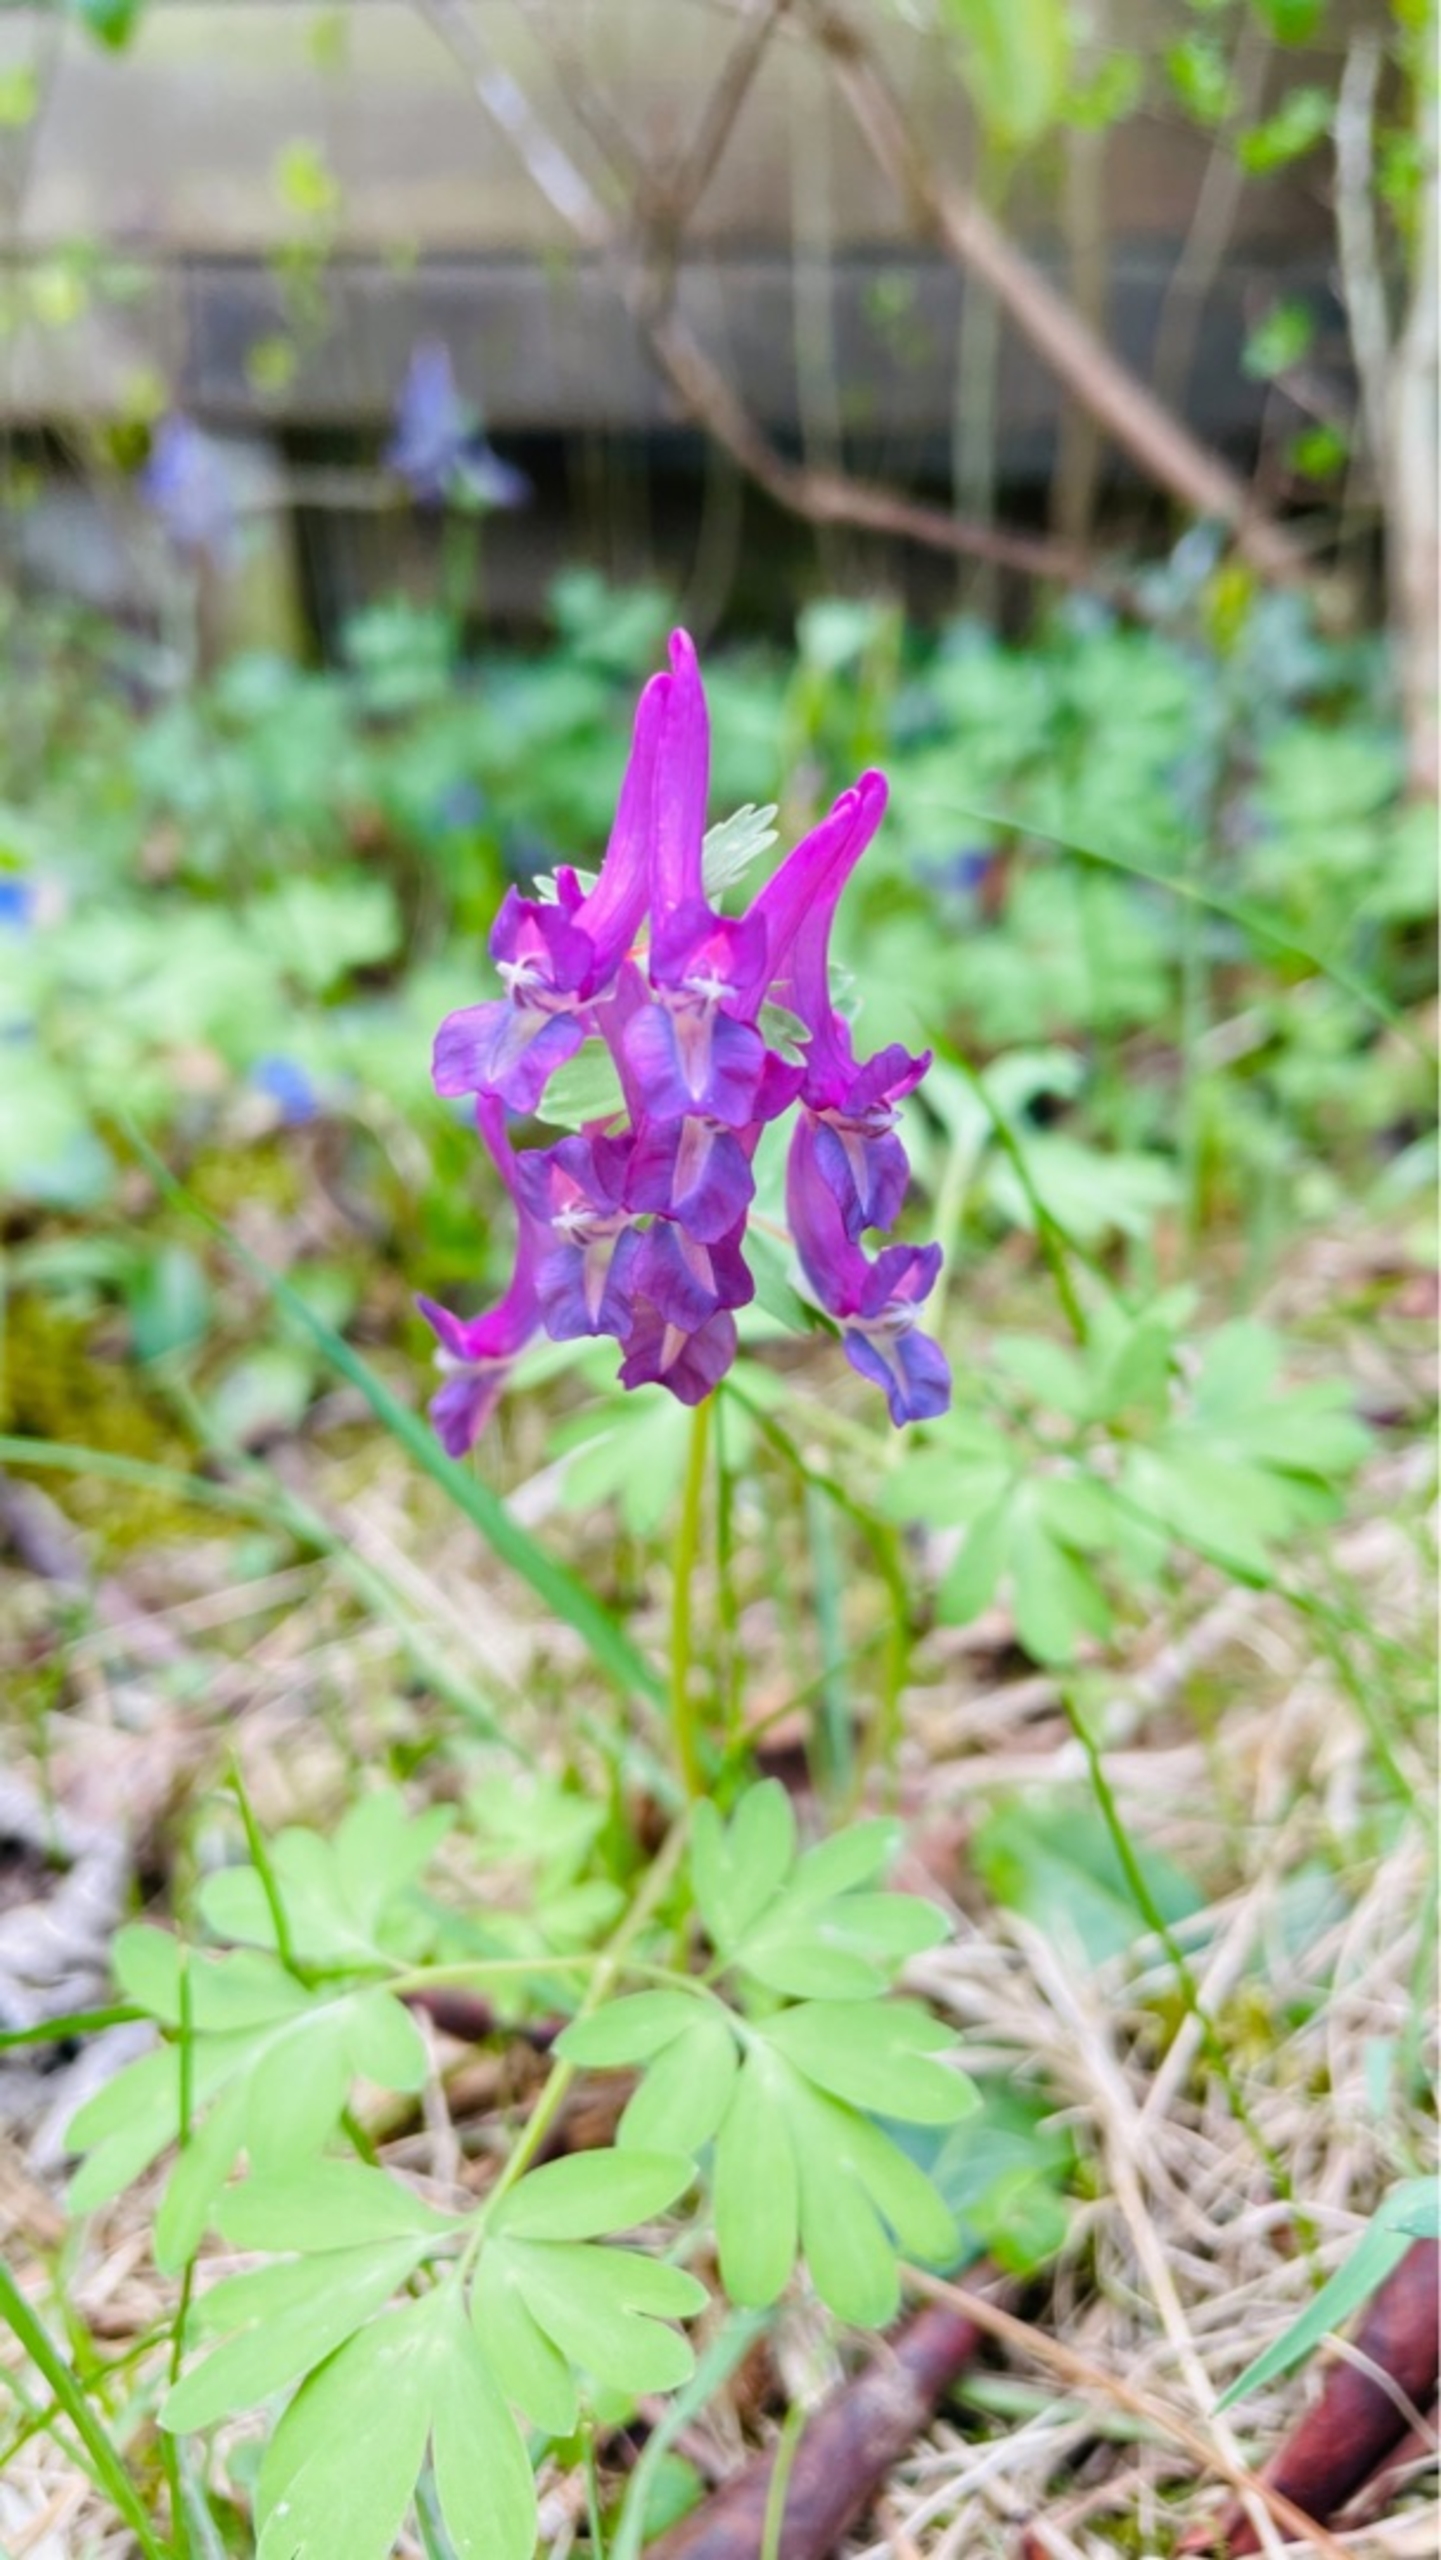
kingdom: Plantae
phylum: Tracheophyta
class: Magnoliopsida
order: Ranunculales
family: Papaveraceae
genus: Corydalis
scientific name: Corydalis solida
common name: Langstilket lærkespore
